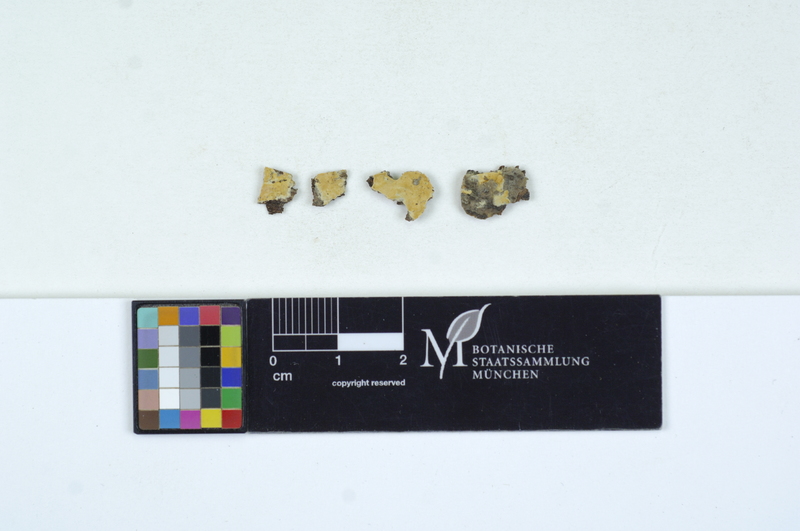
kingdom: Fungi
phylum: Basidiomycota
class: Agaricomycetes
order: Sebacinales
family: Sebacinaceae
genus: Sebacina
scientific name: Sebacina incrustans
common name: Enveloping crust
